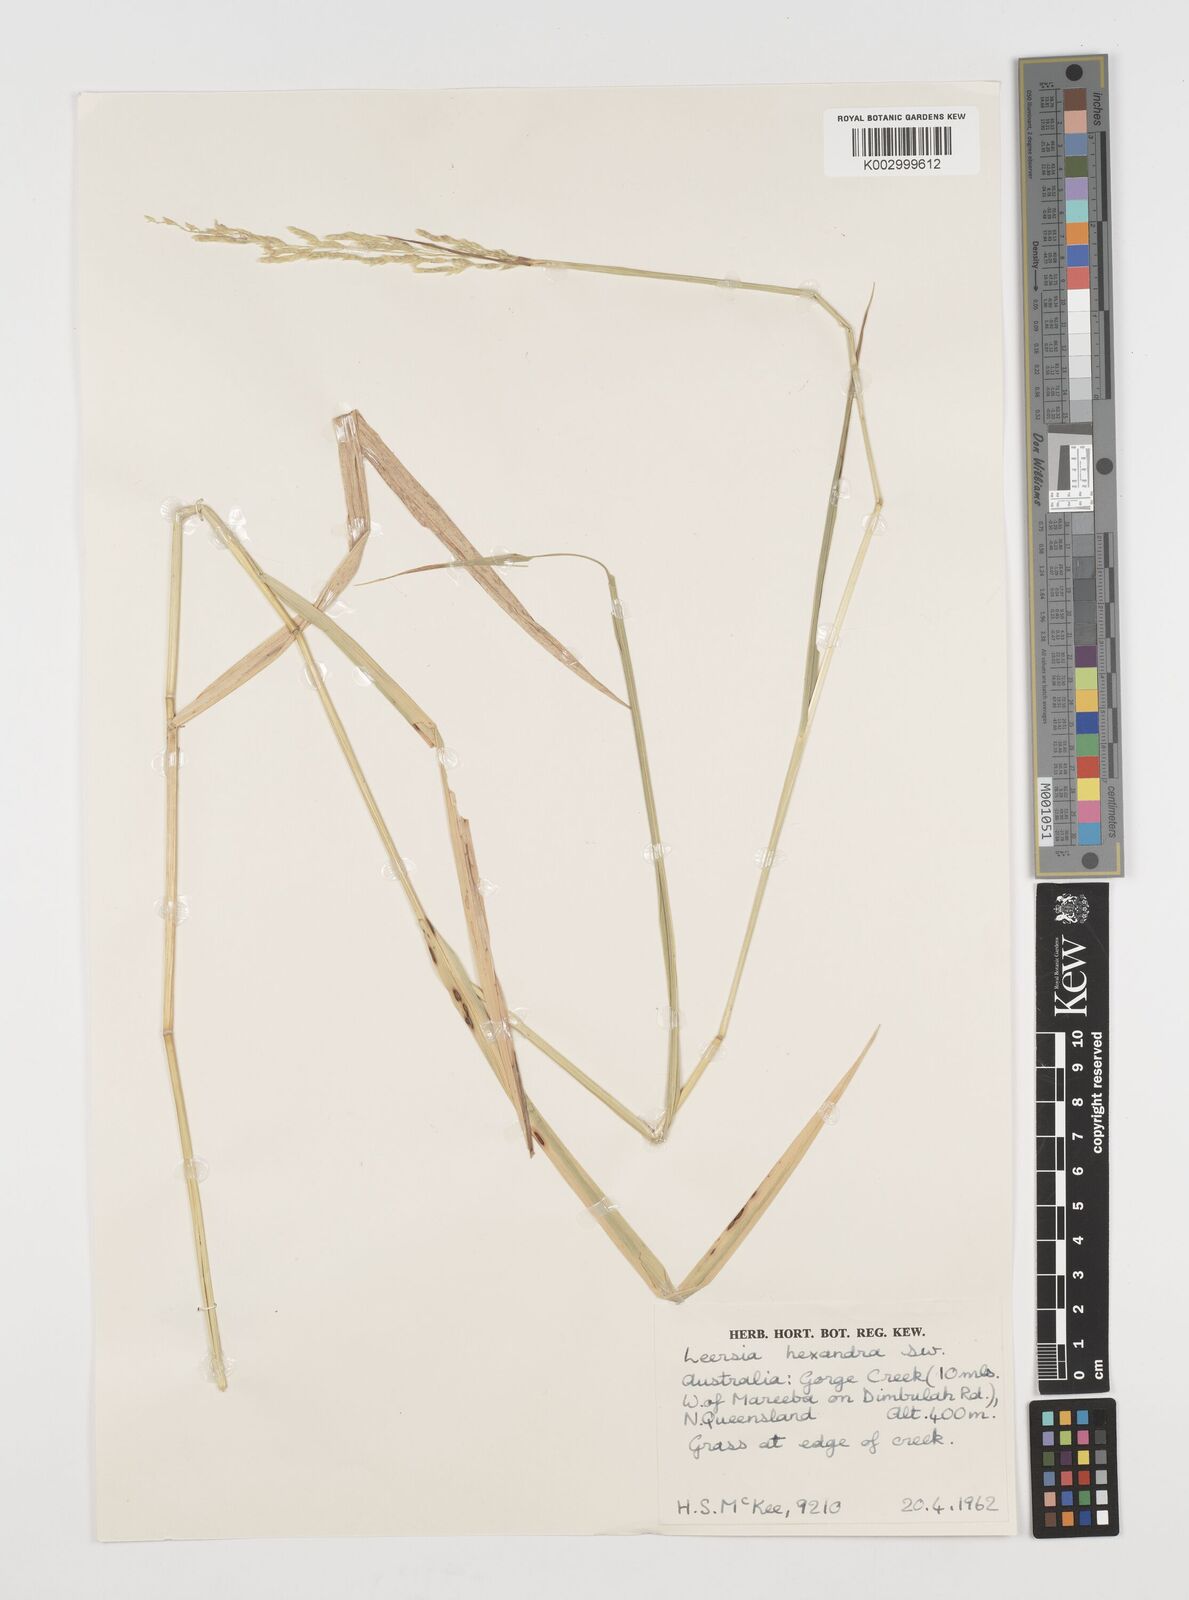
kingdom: Plantae
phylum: Tracheophyta
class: Liliopsida
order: Poales
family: Poaceae
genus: Leersia
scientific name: Leersia hexandra
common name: Southern cut grass
